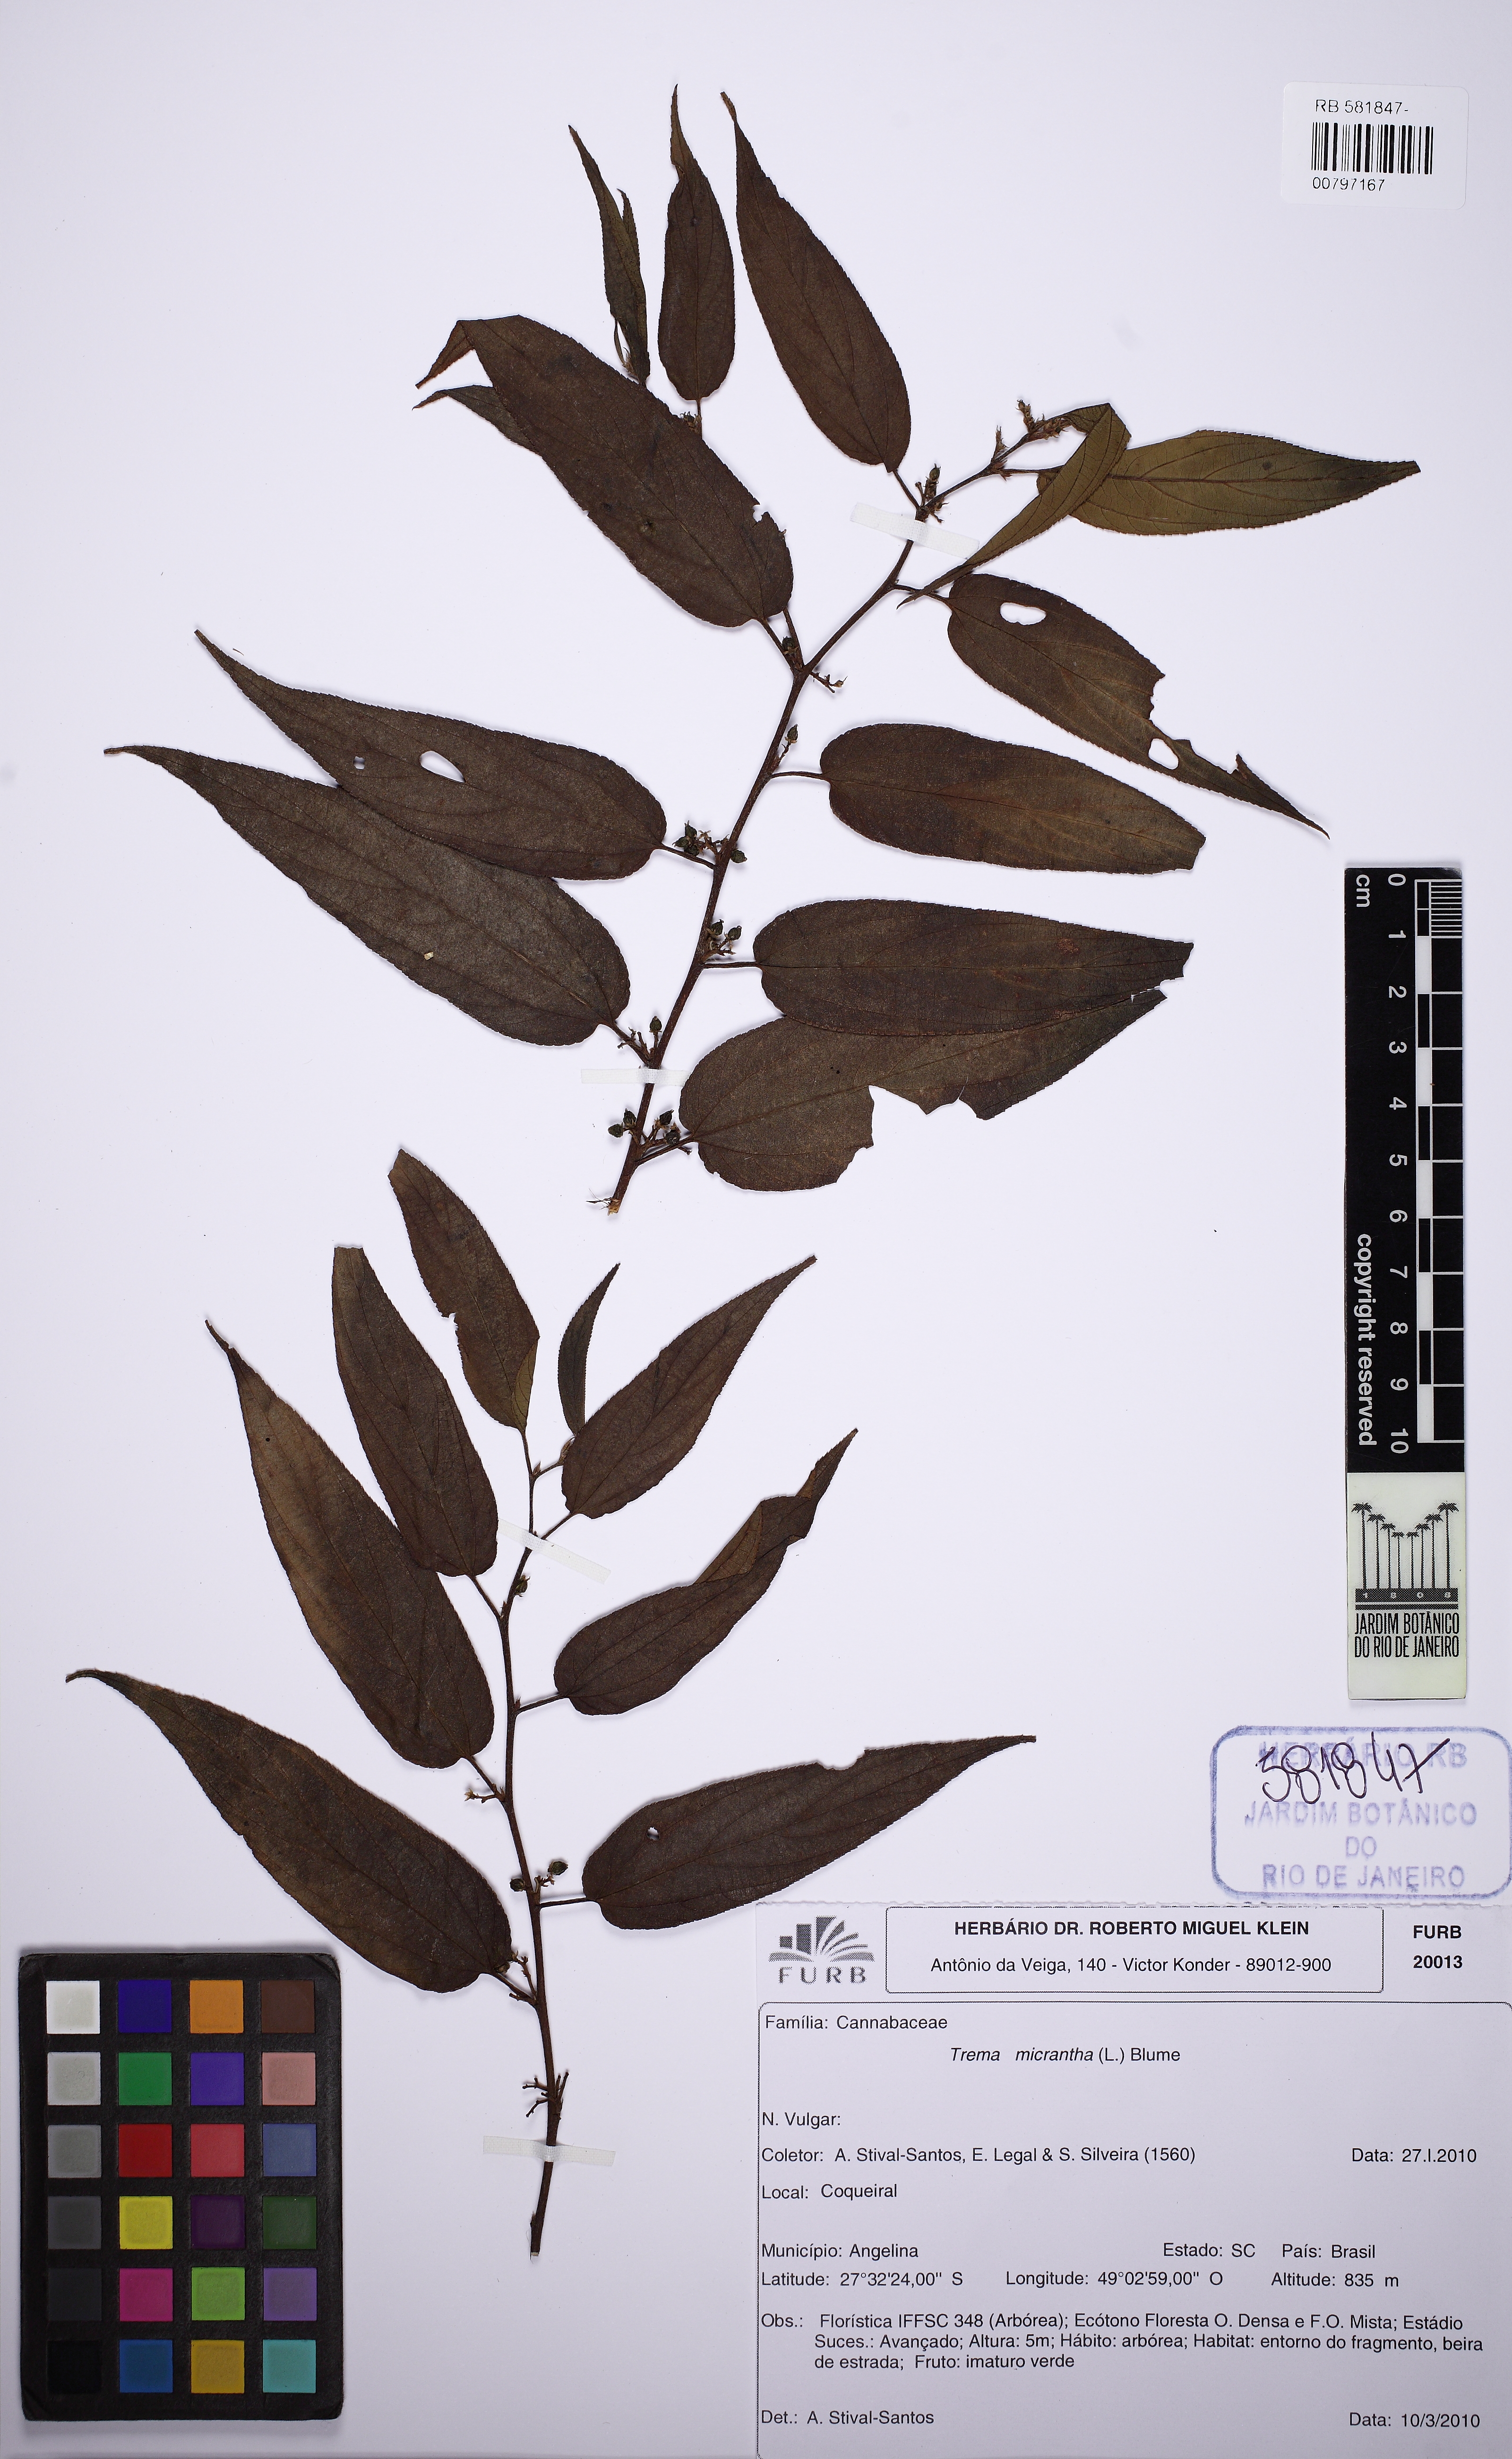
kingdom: Plantae
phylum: Tracheophyta
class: Magnoliopsida
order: Rosales
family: Cannabaceae
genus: Trema
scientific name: Trema micranthum
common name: Jamaican nettletree
